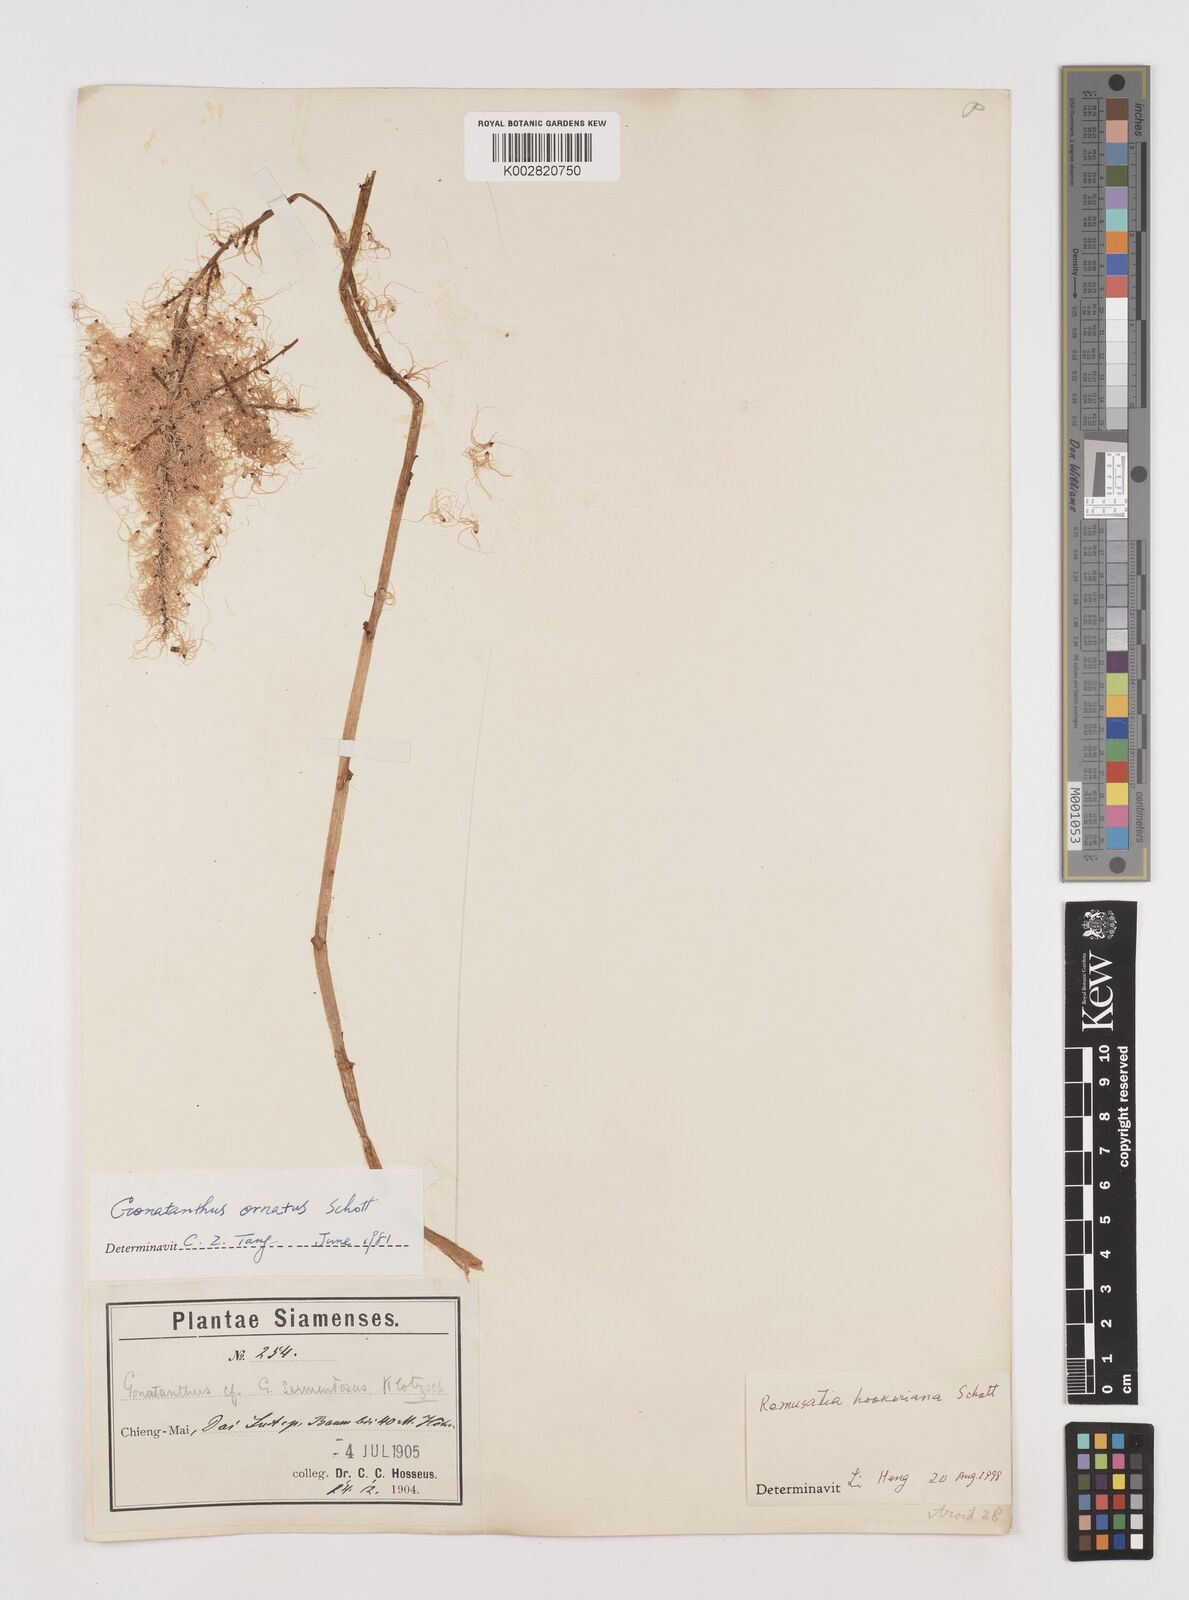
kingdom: Plantae
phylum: Tracheophyta
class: Liliopsida
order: Alismatales
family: Araceae
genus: Remusatia
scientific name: Remusatia hookeriana
